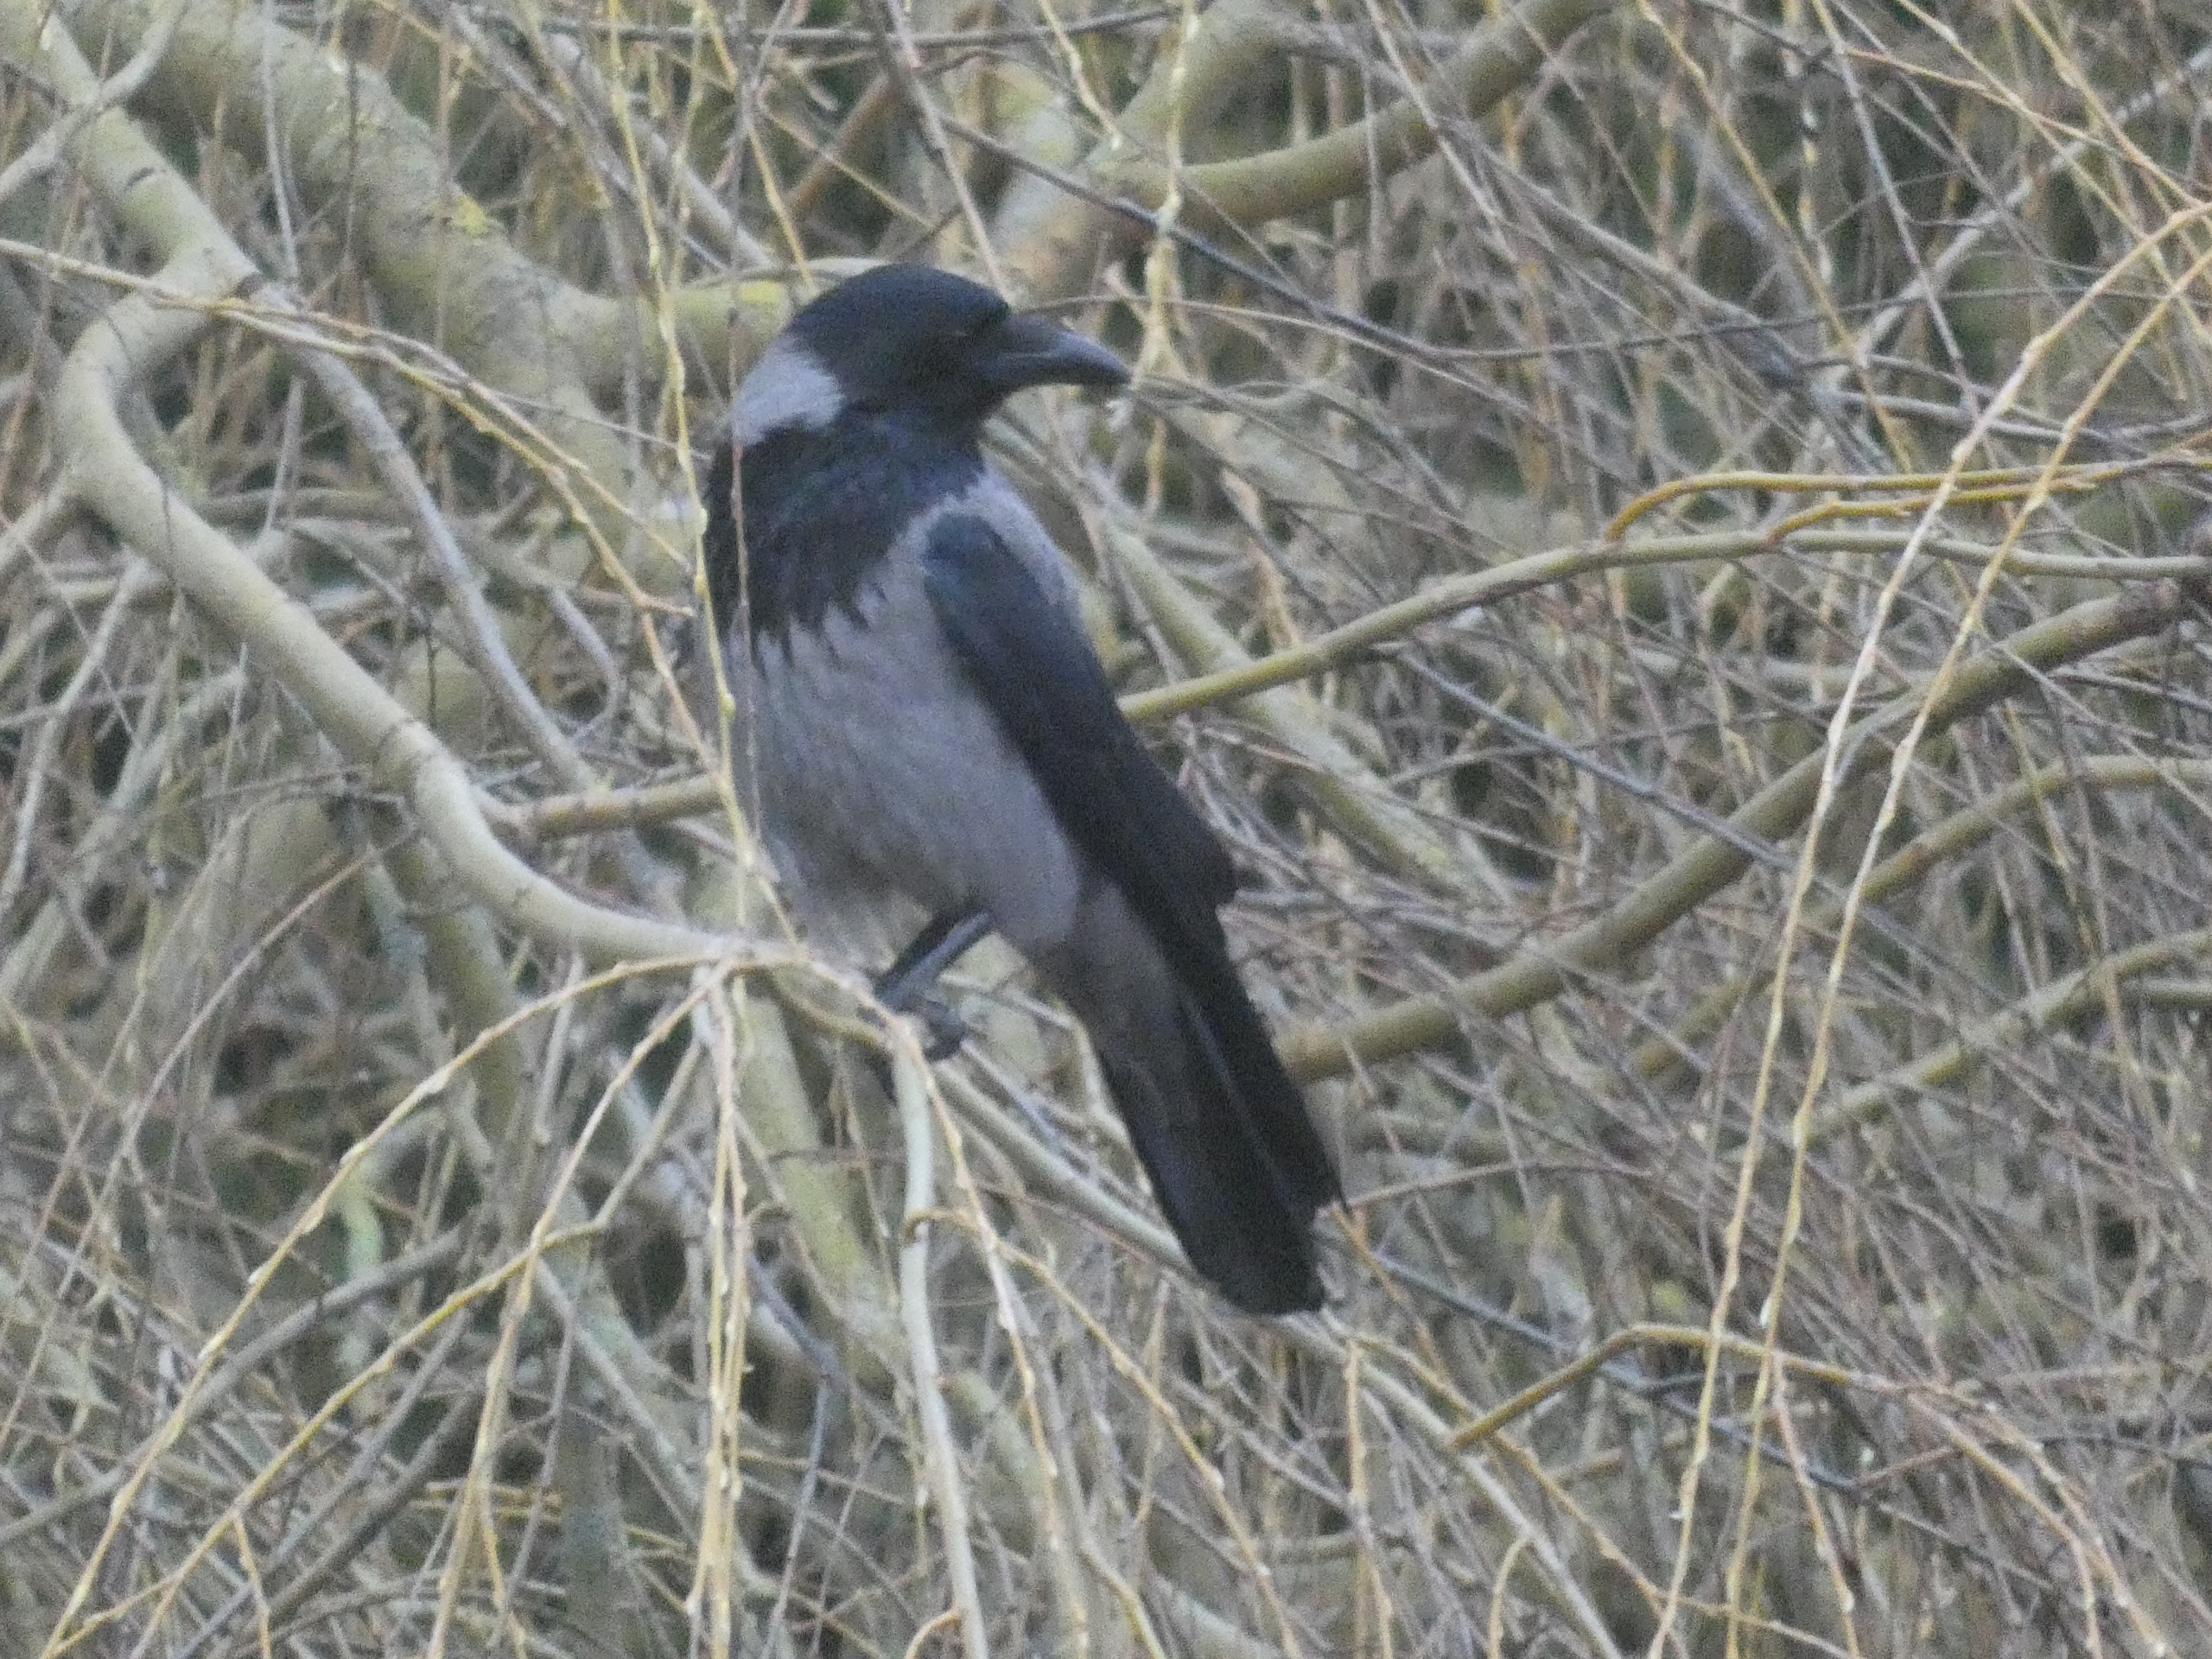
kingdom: Animalia
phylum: Chordata
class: Aves
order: Passeriformes
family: Corvidae
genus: Corvus
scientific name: Corvus cornix
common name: Gråkrage
